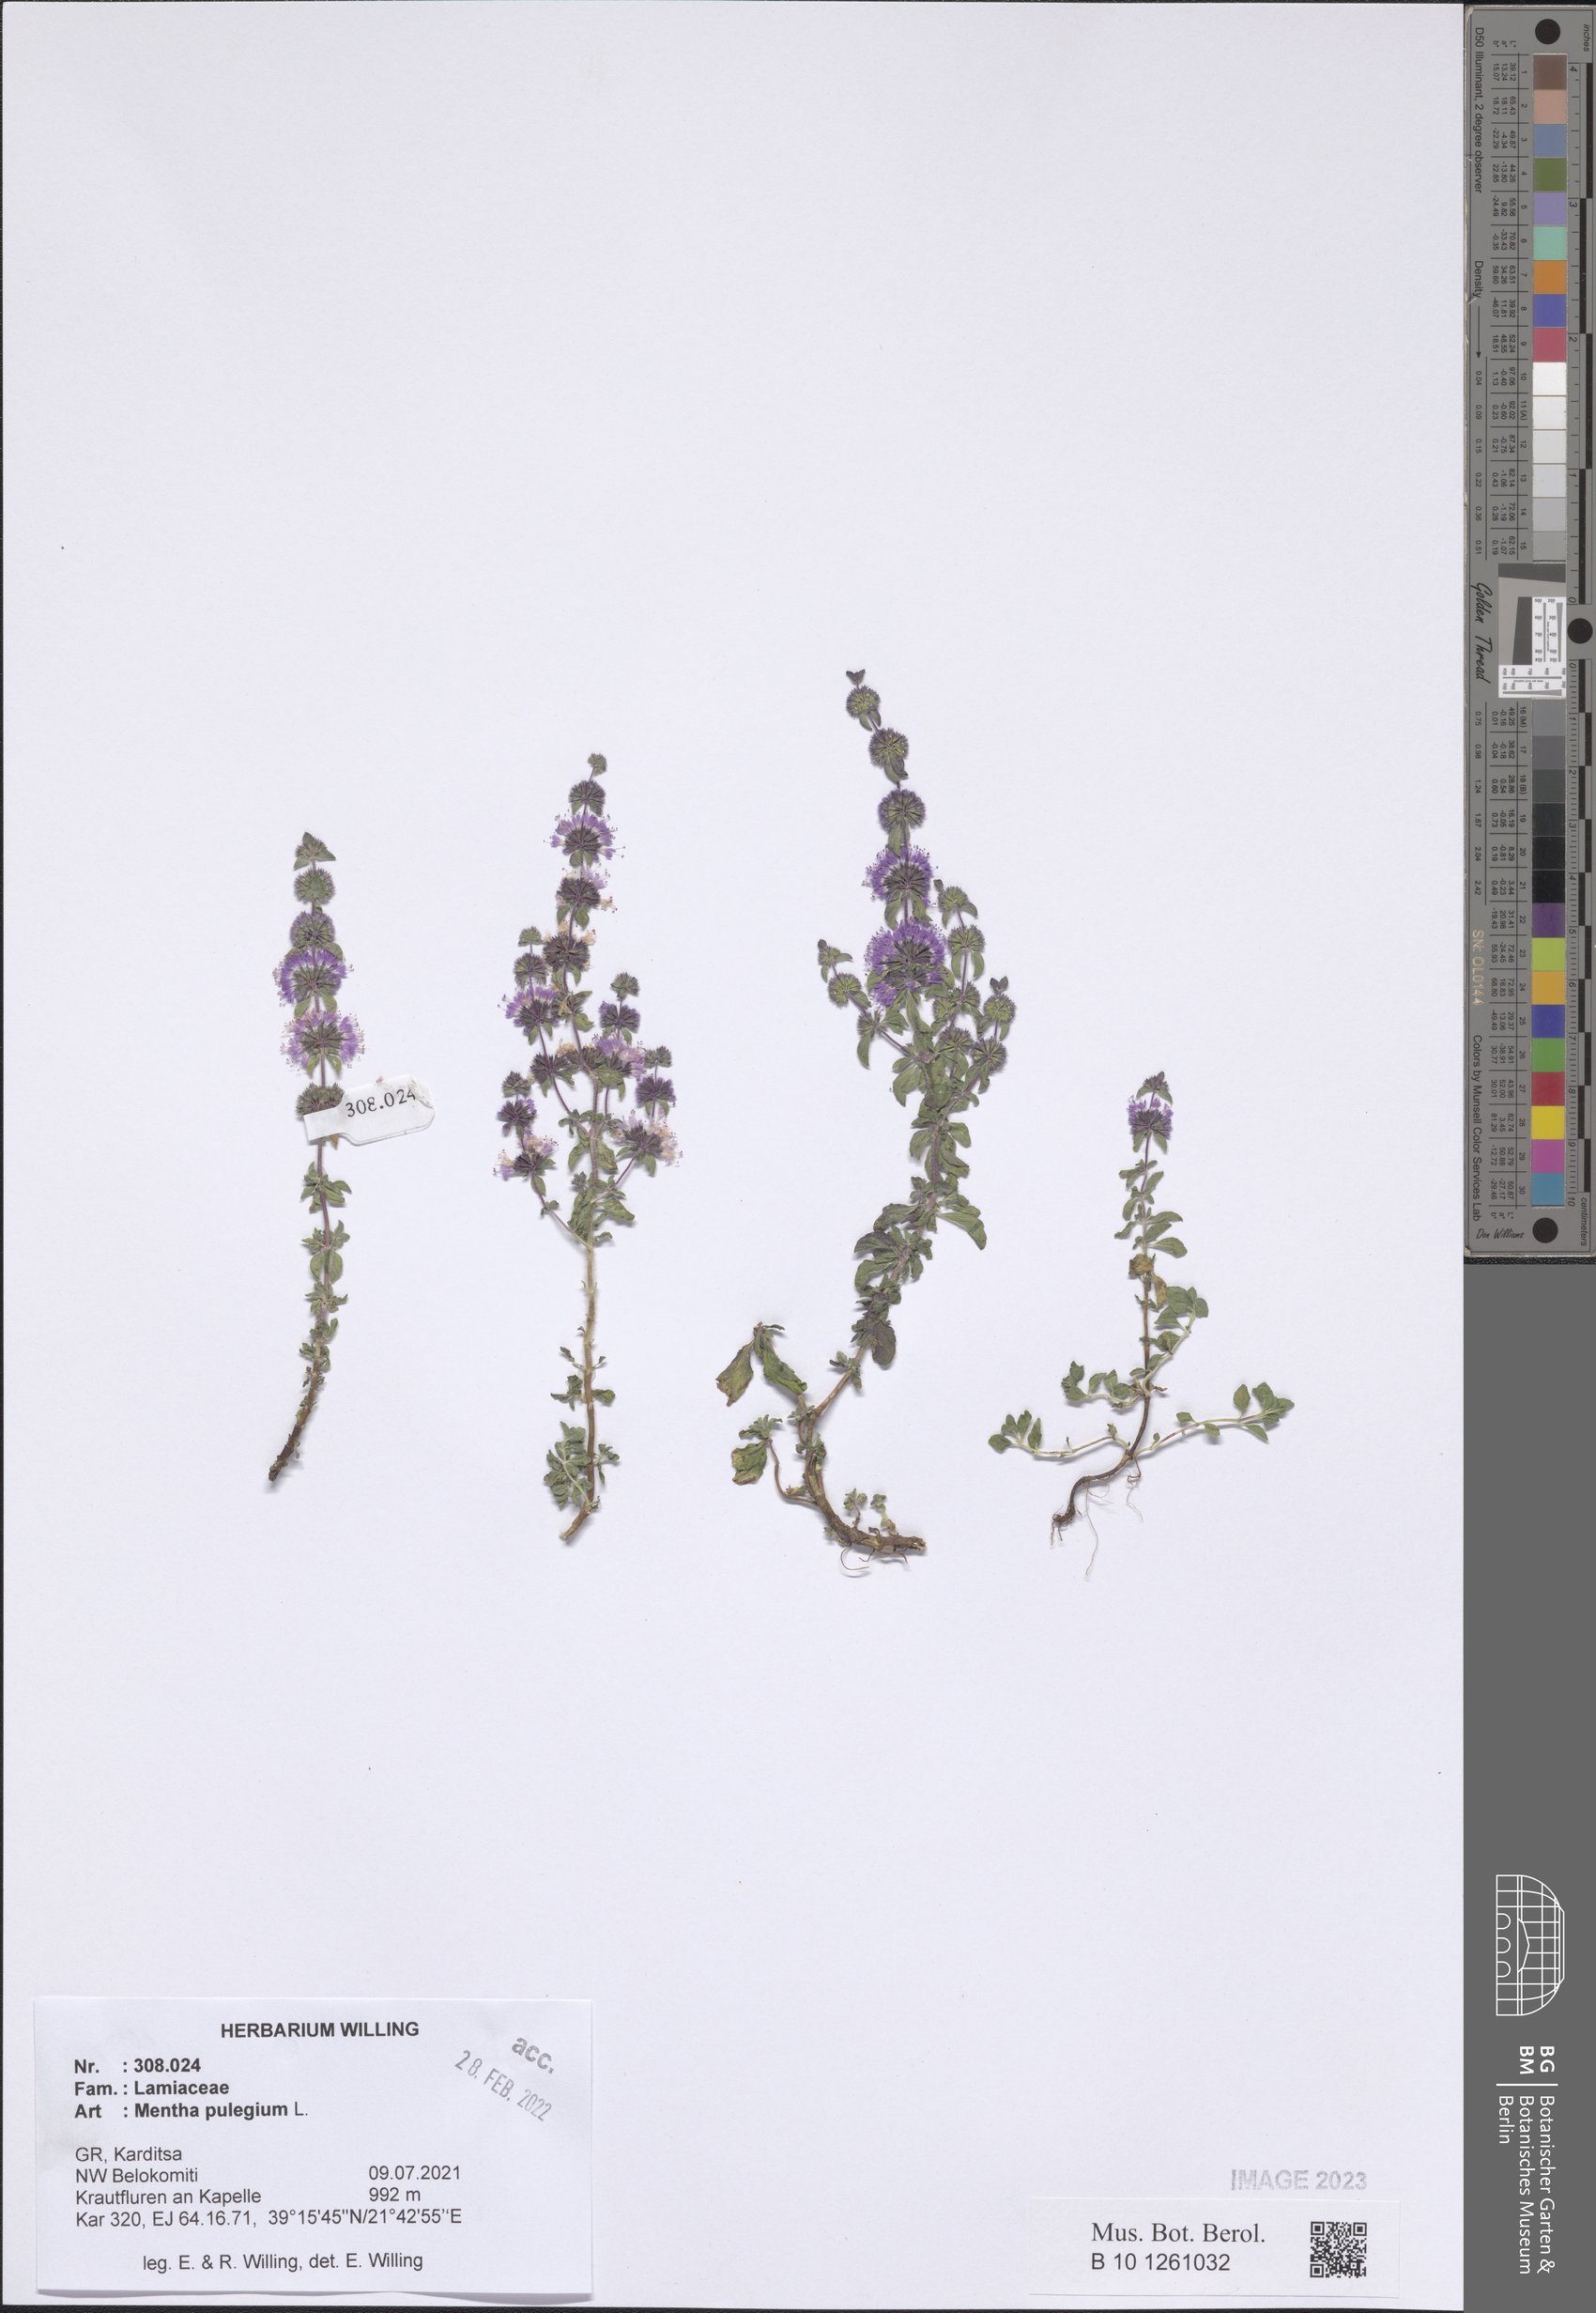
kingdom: Plantae
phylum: Tracheophyta
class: Magnoliopsida
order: Lamiales
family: Lamiaceae
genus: Mentha
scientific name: Mentha pulegium
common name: Pennyroyal
